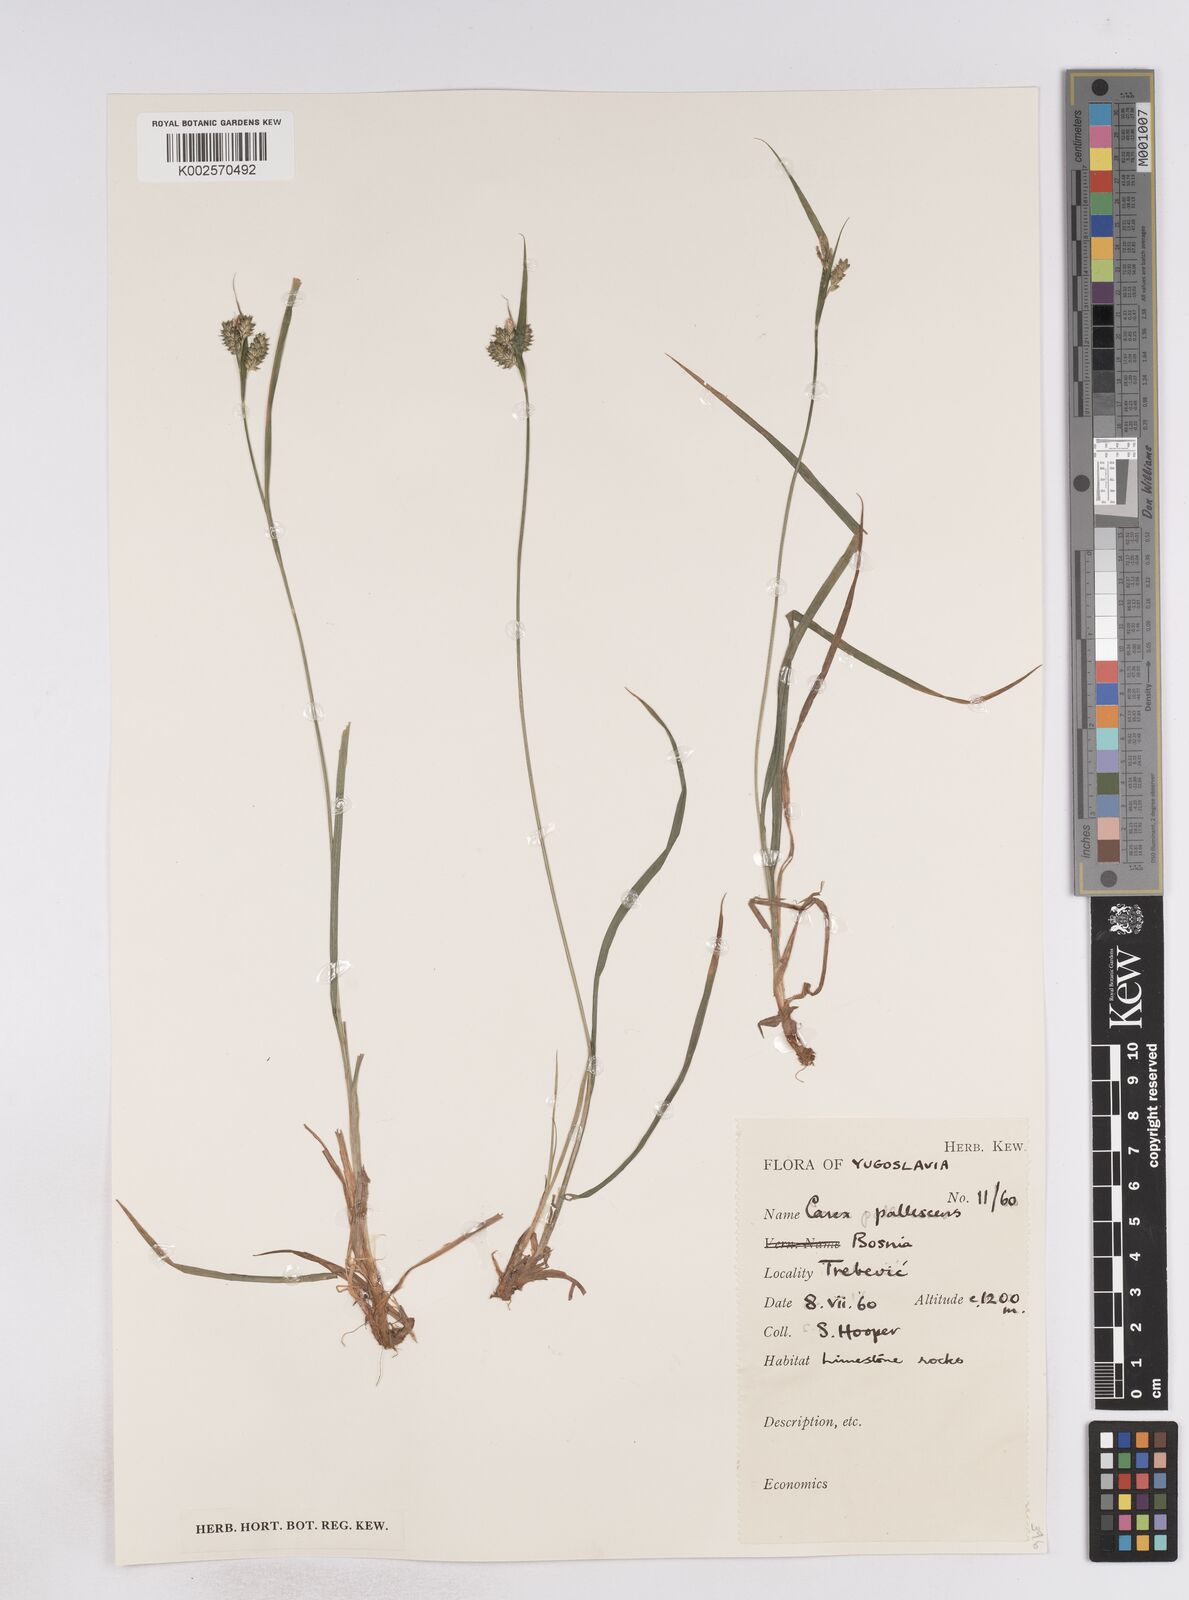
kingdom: Plantae
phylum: Tracheophyta
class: Liliopsida
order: Poales
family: Cyperaceae
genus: Carex
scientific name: Carex pallescens
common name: Pale sedge
